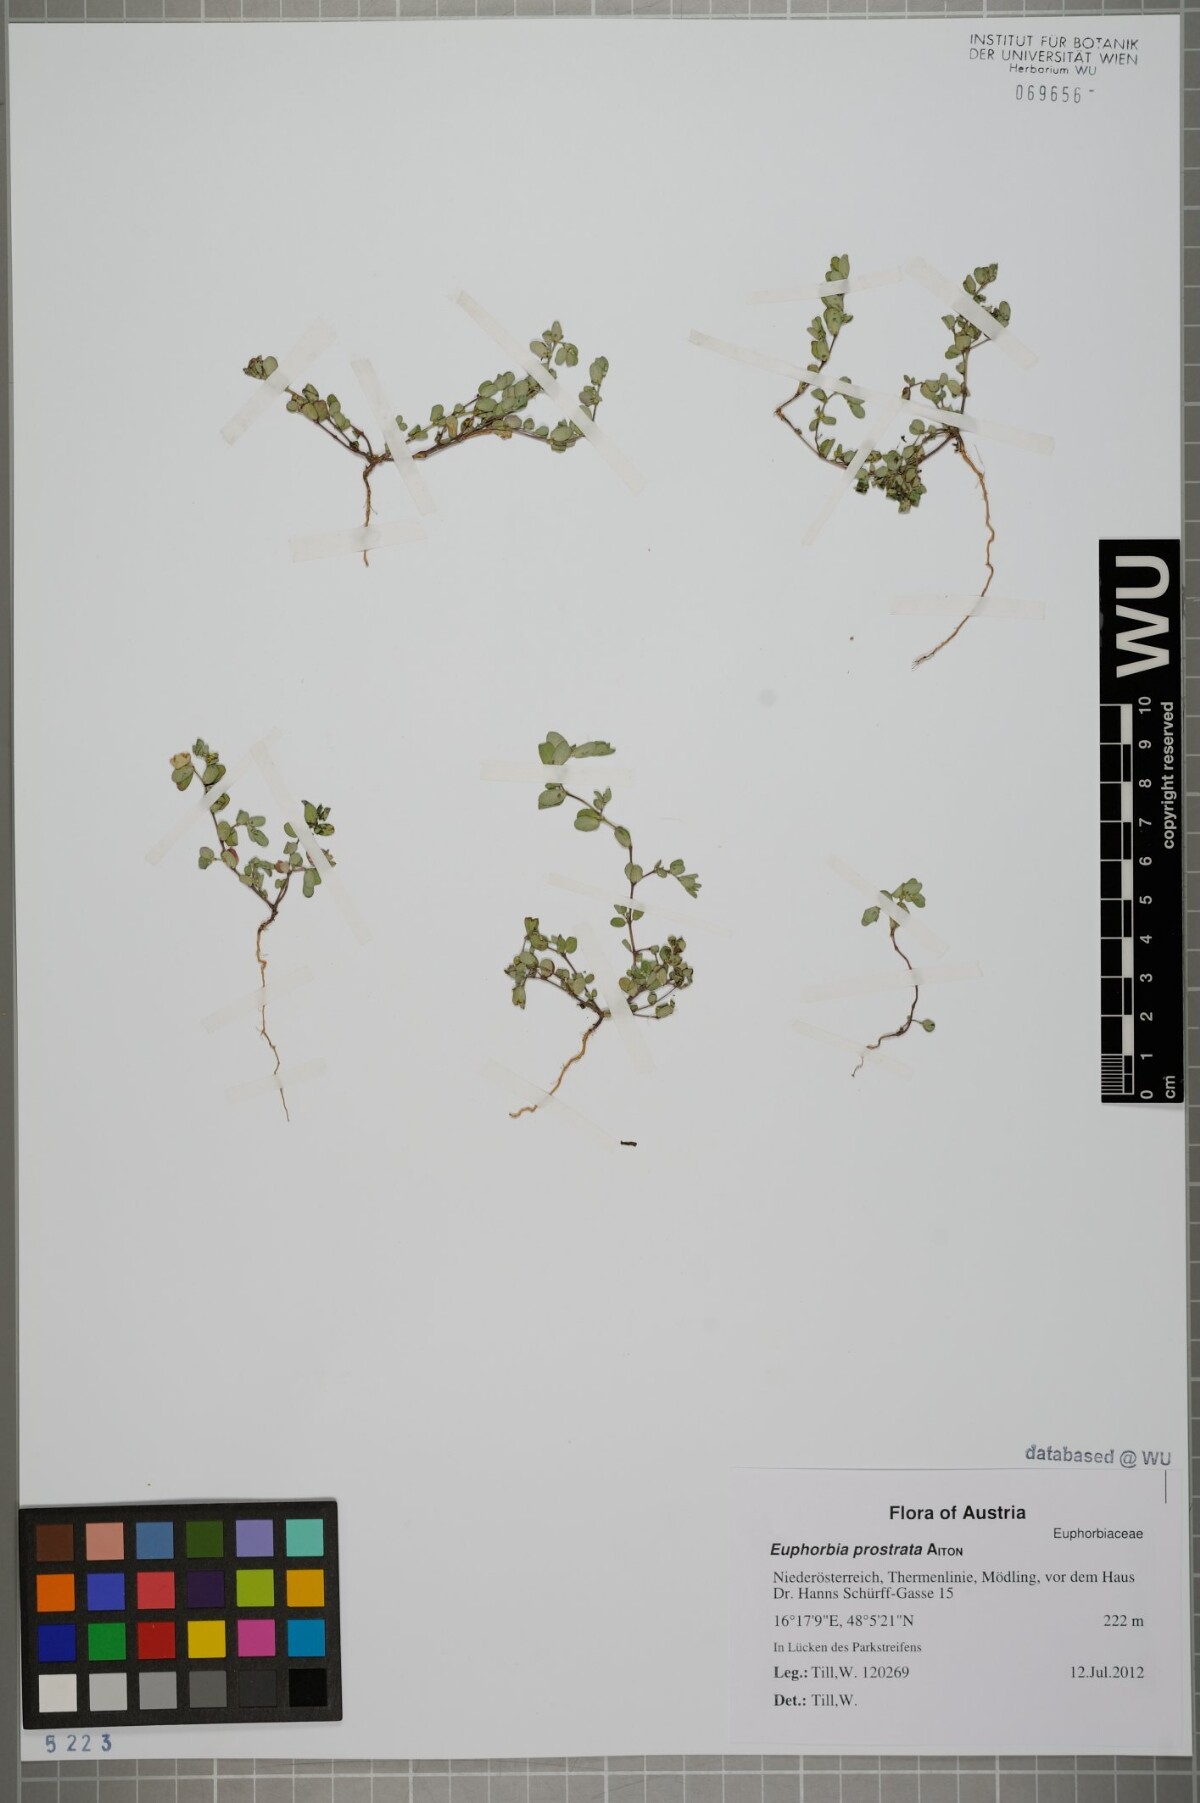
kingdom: Plantae
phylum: Tracheophyta
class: Magnoliopsida
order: Malpighiales
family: Euphorbiaceae
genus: Euphorbia
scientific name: Euphorbia prostrata
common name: Prostrate sandmat
